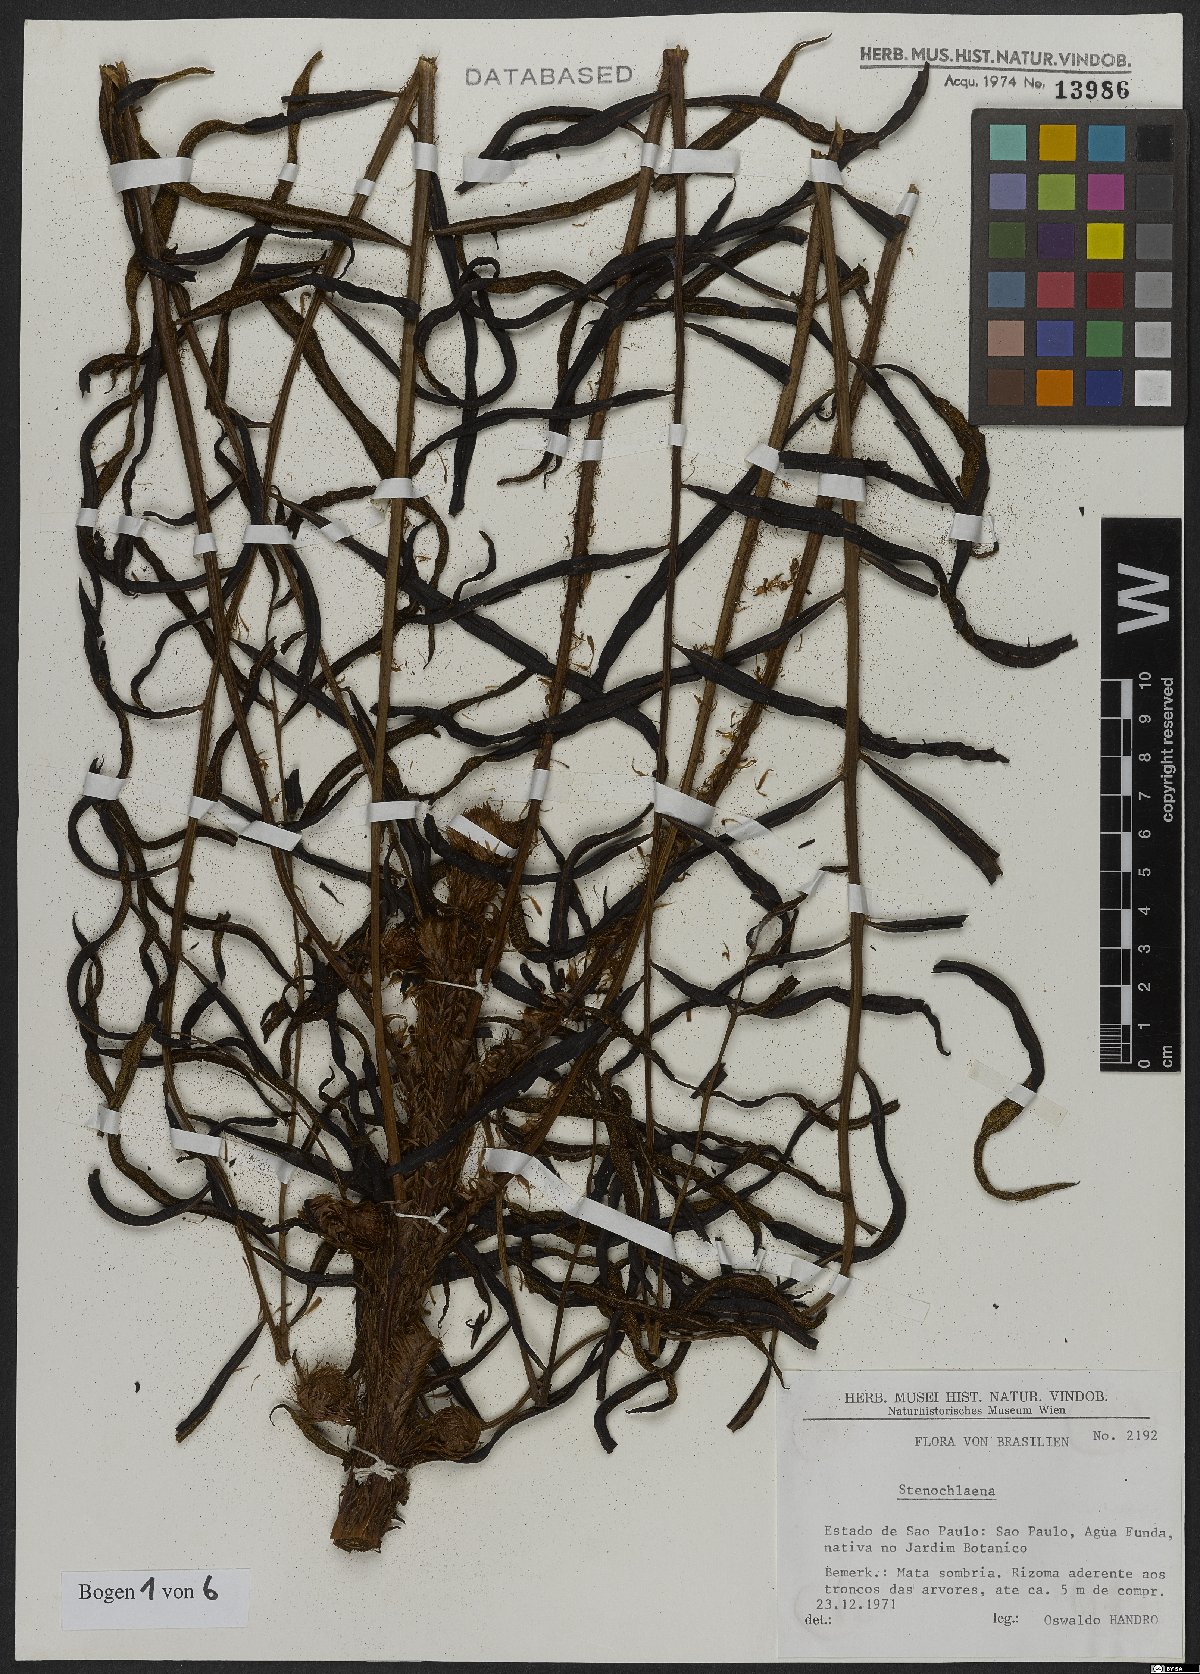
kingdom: Plantae
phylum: Tracheophyta
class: Polypodiopsida
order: Polypodiales
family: Blechnaceae
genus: Stenochlaena
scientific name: Stenochlaena
